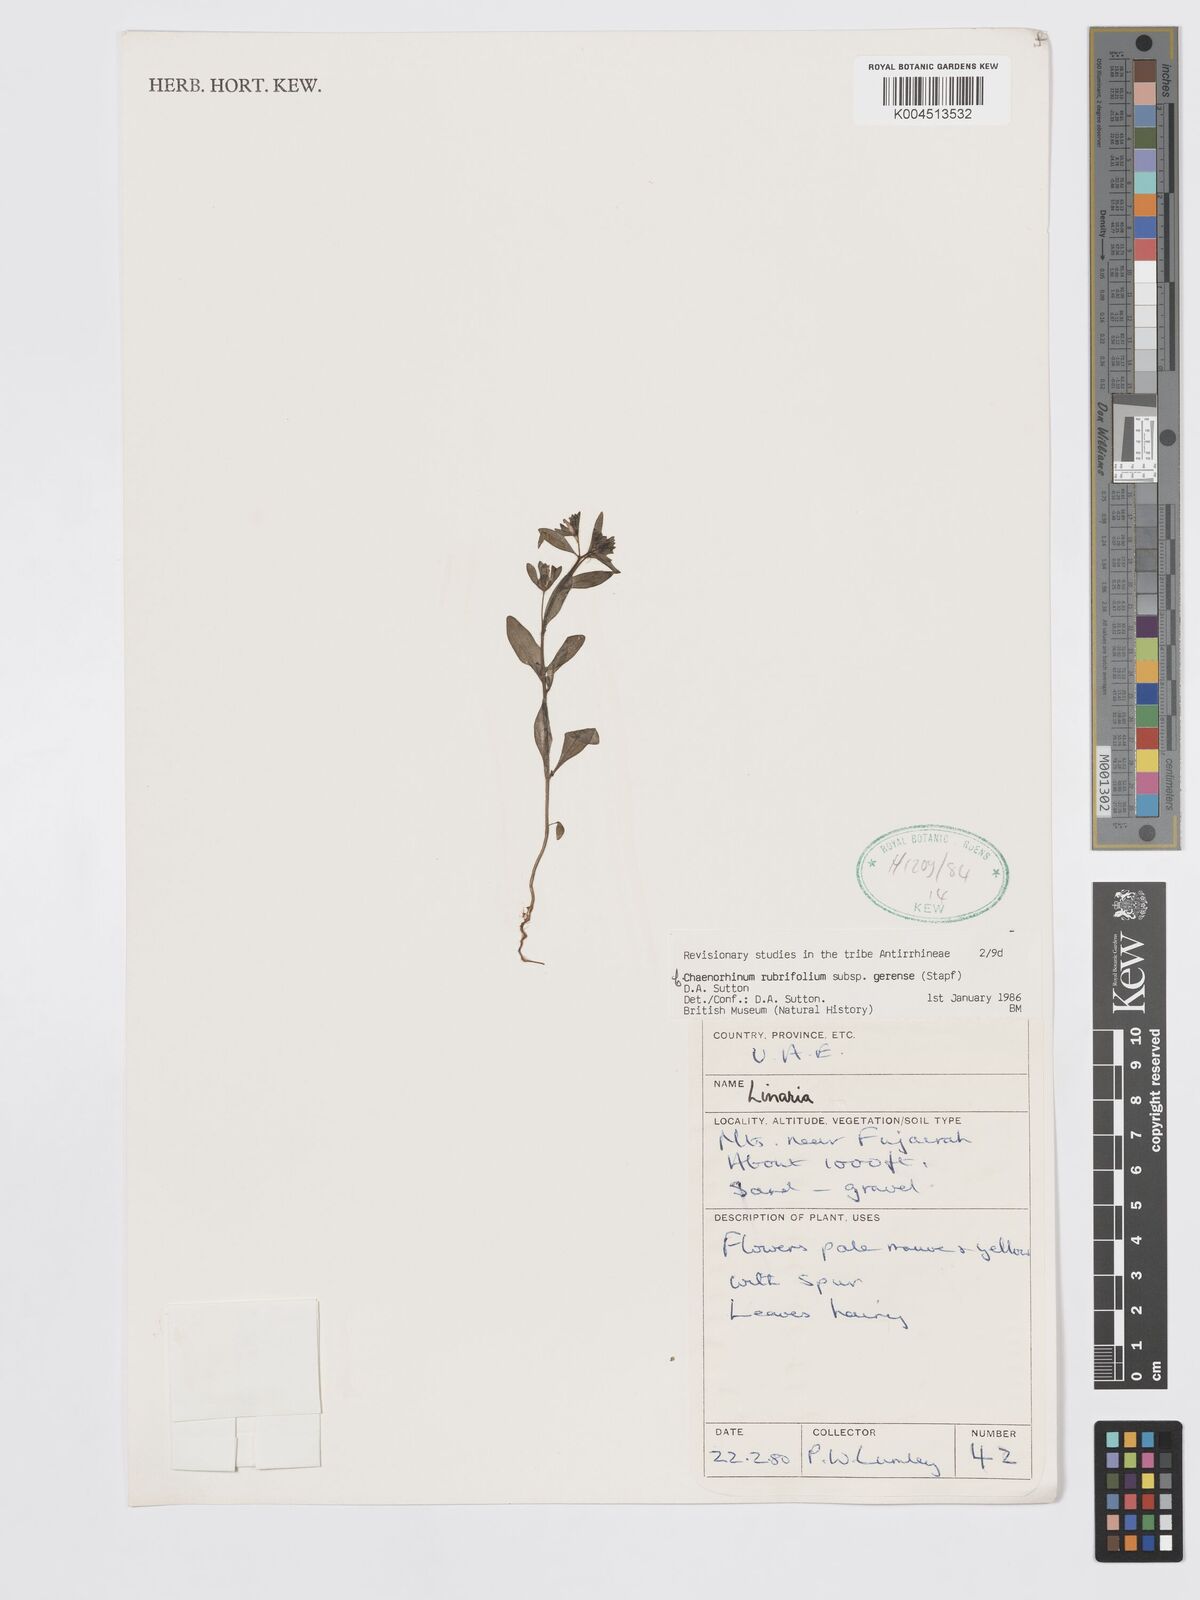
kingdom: Plantae
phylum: Tracheophyta
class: Magnoliopsida
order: Lamiales
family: Plantaginaceae
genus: Chaenorhinum
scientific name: Chaenorhinum rubrifolium
